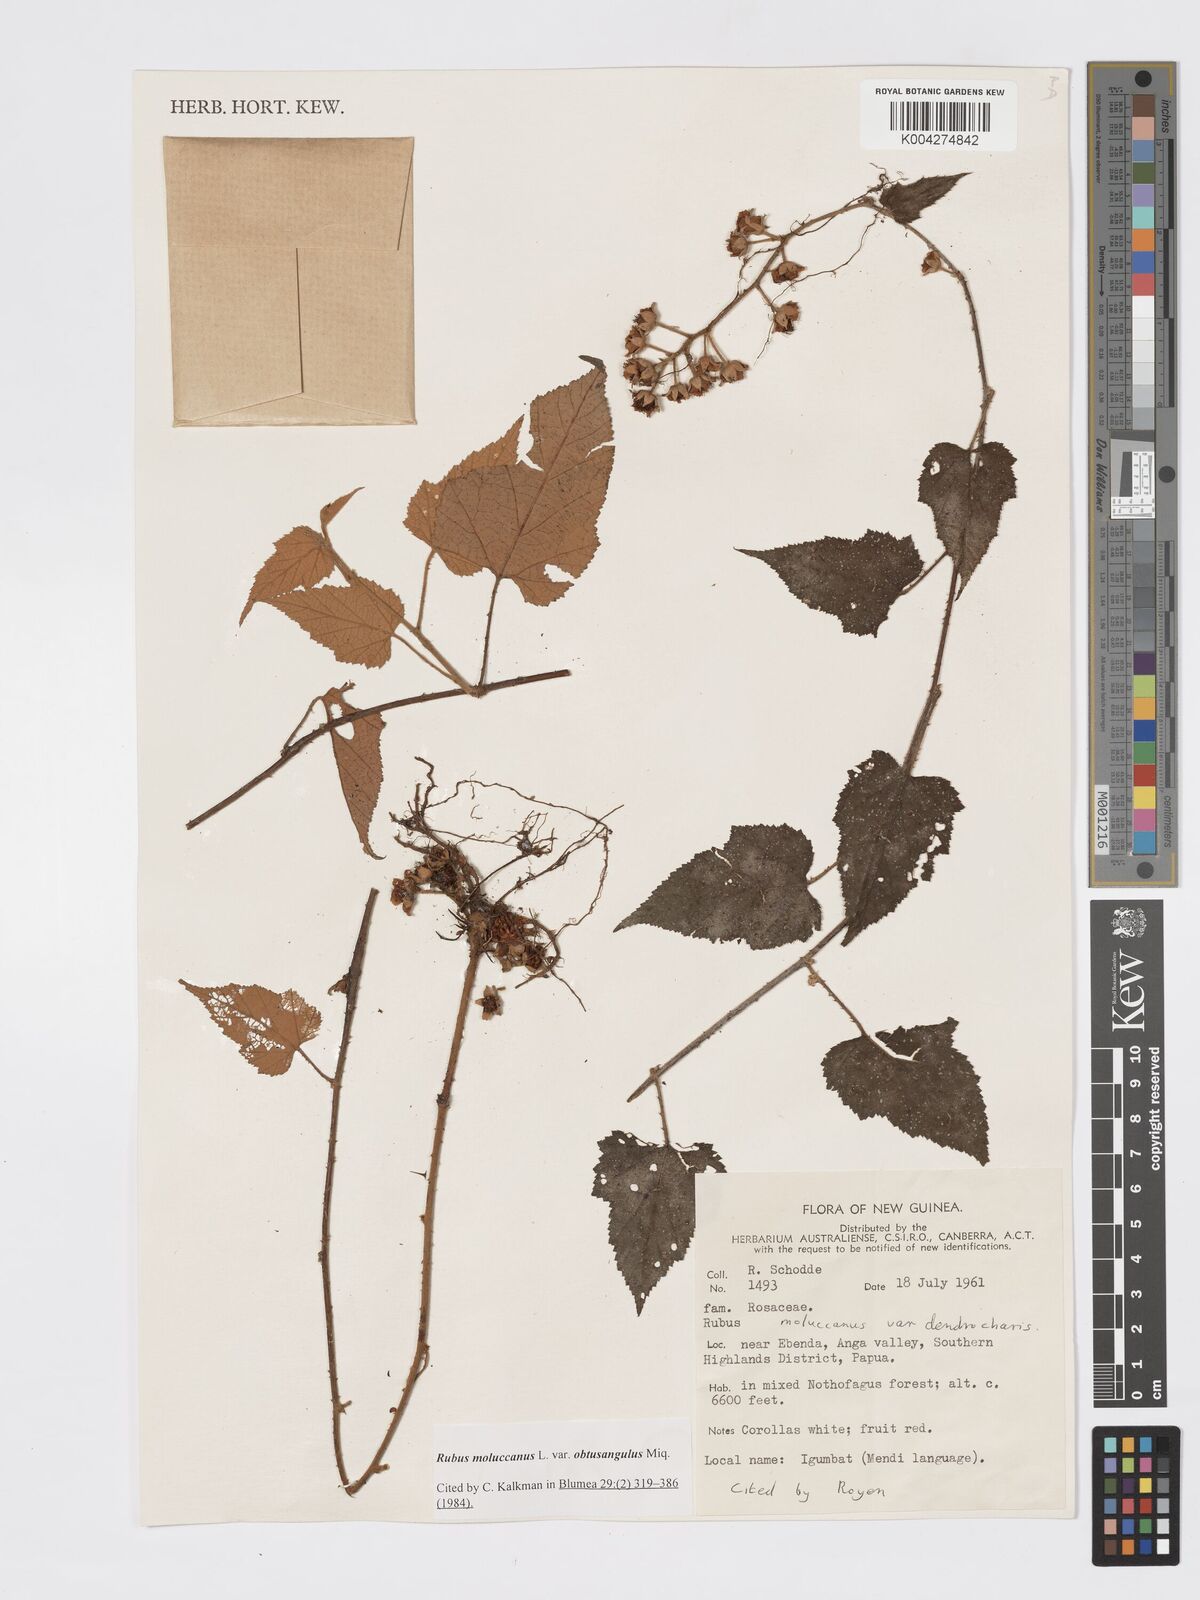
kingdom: Plantae
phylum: Tracheophyta
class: Magnoliopsida
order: Rosales
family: Rosaceae
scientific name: Rosaceae
